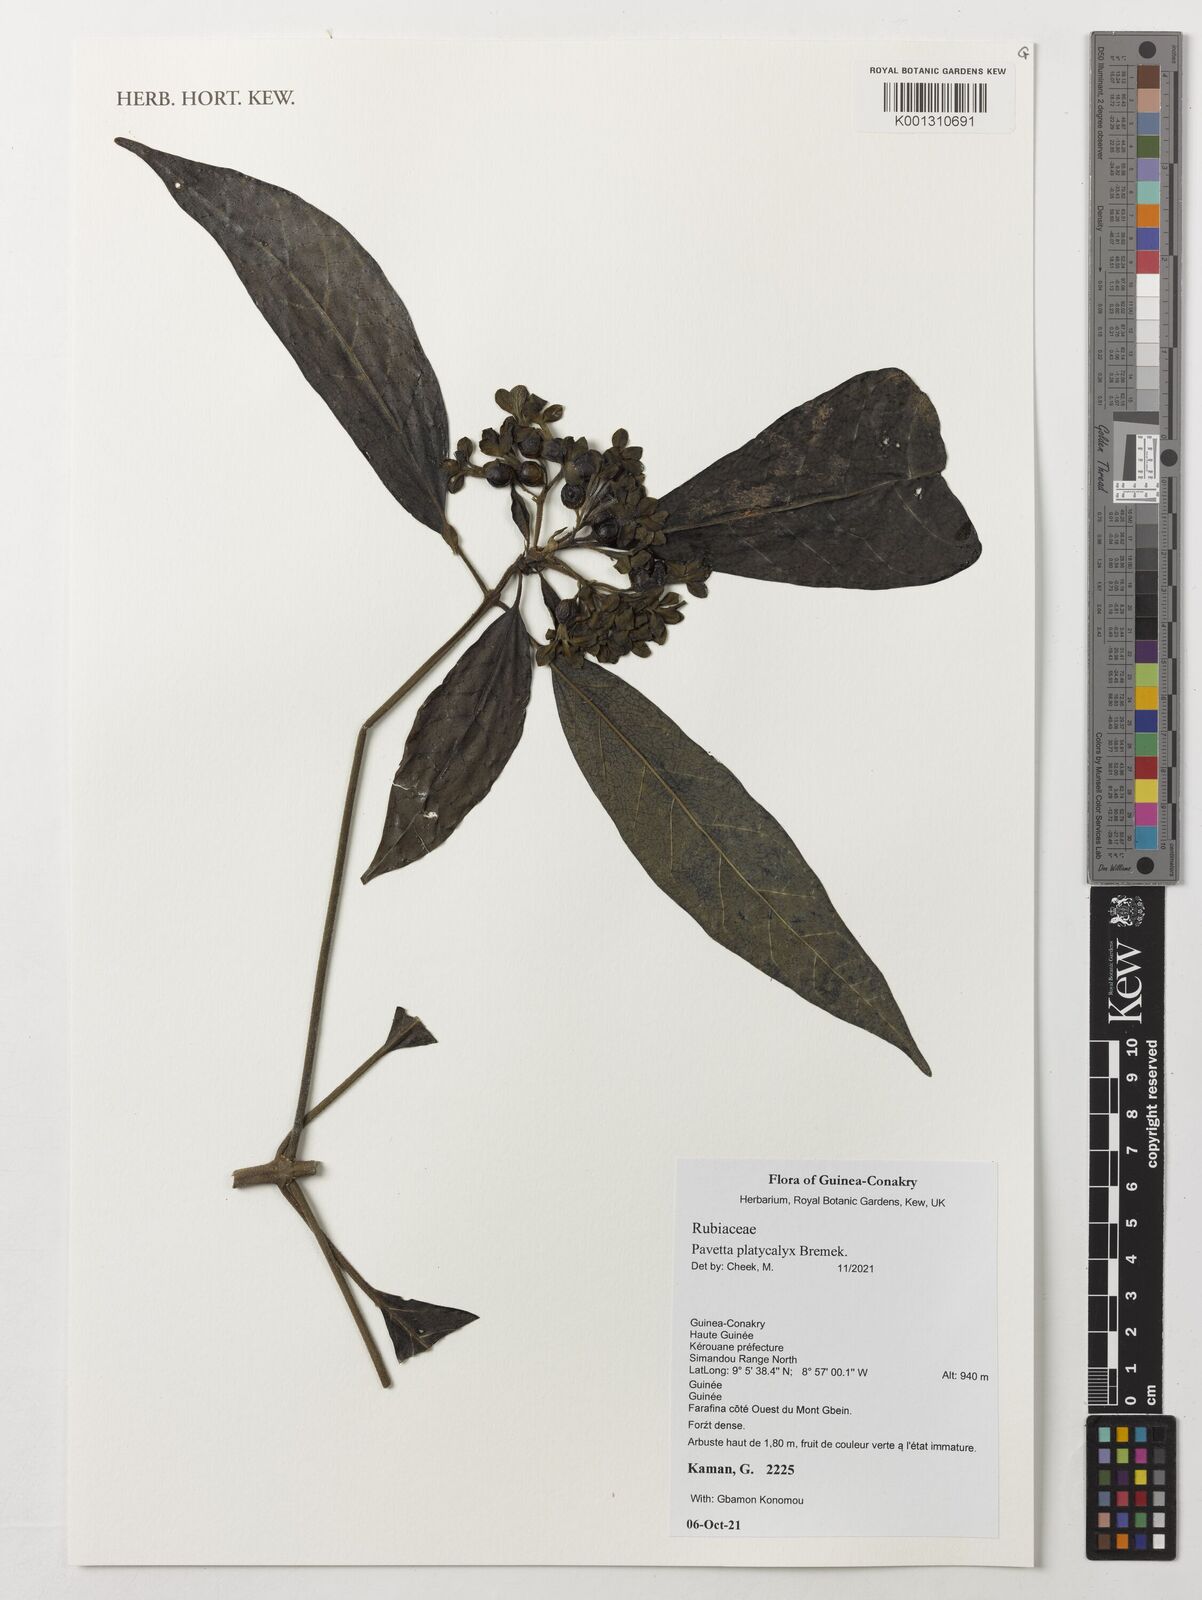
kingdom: Plantae
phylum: Tracheophyta
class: Magnoliopsida
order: Gentianales
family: Rubiaceae
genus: Pavetta
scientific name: Pavetta platycalyx
